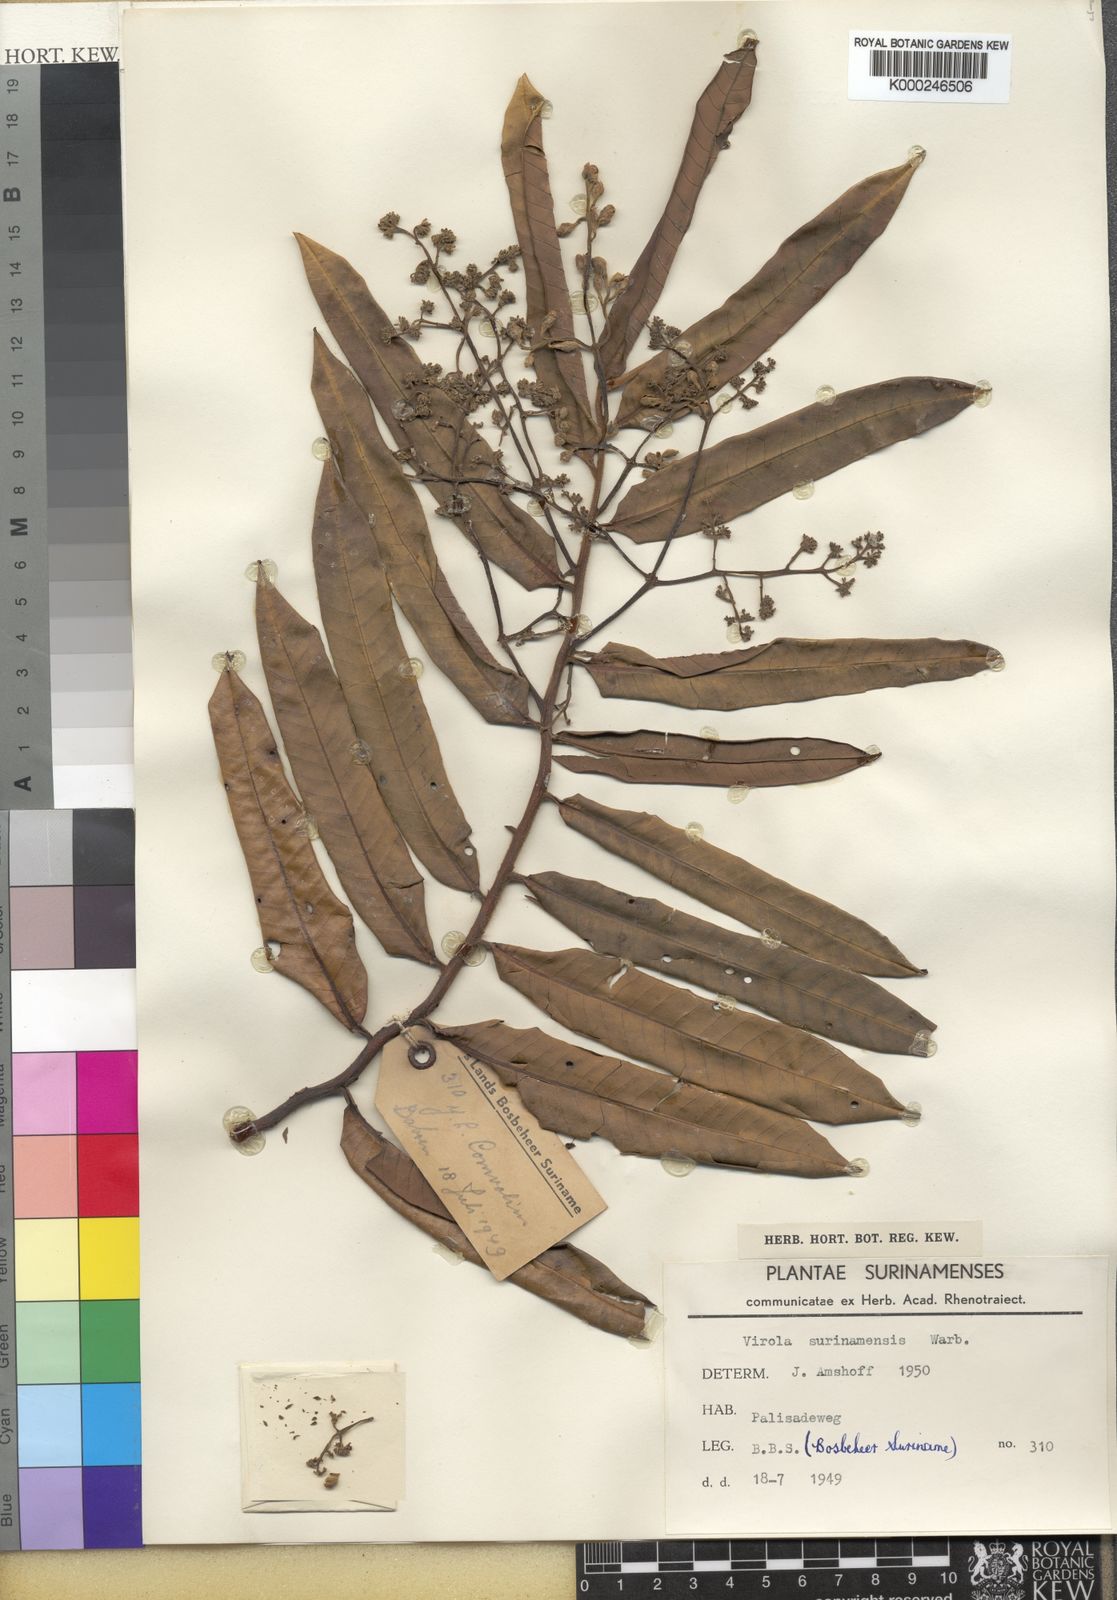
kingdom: Plantae
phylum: Tracheophyta
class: Magnoliopsida
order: Magnoliales
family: Myristicaceae
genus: Virola
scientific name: Virola surinamensis
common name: Baboonwood
